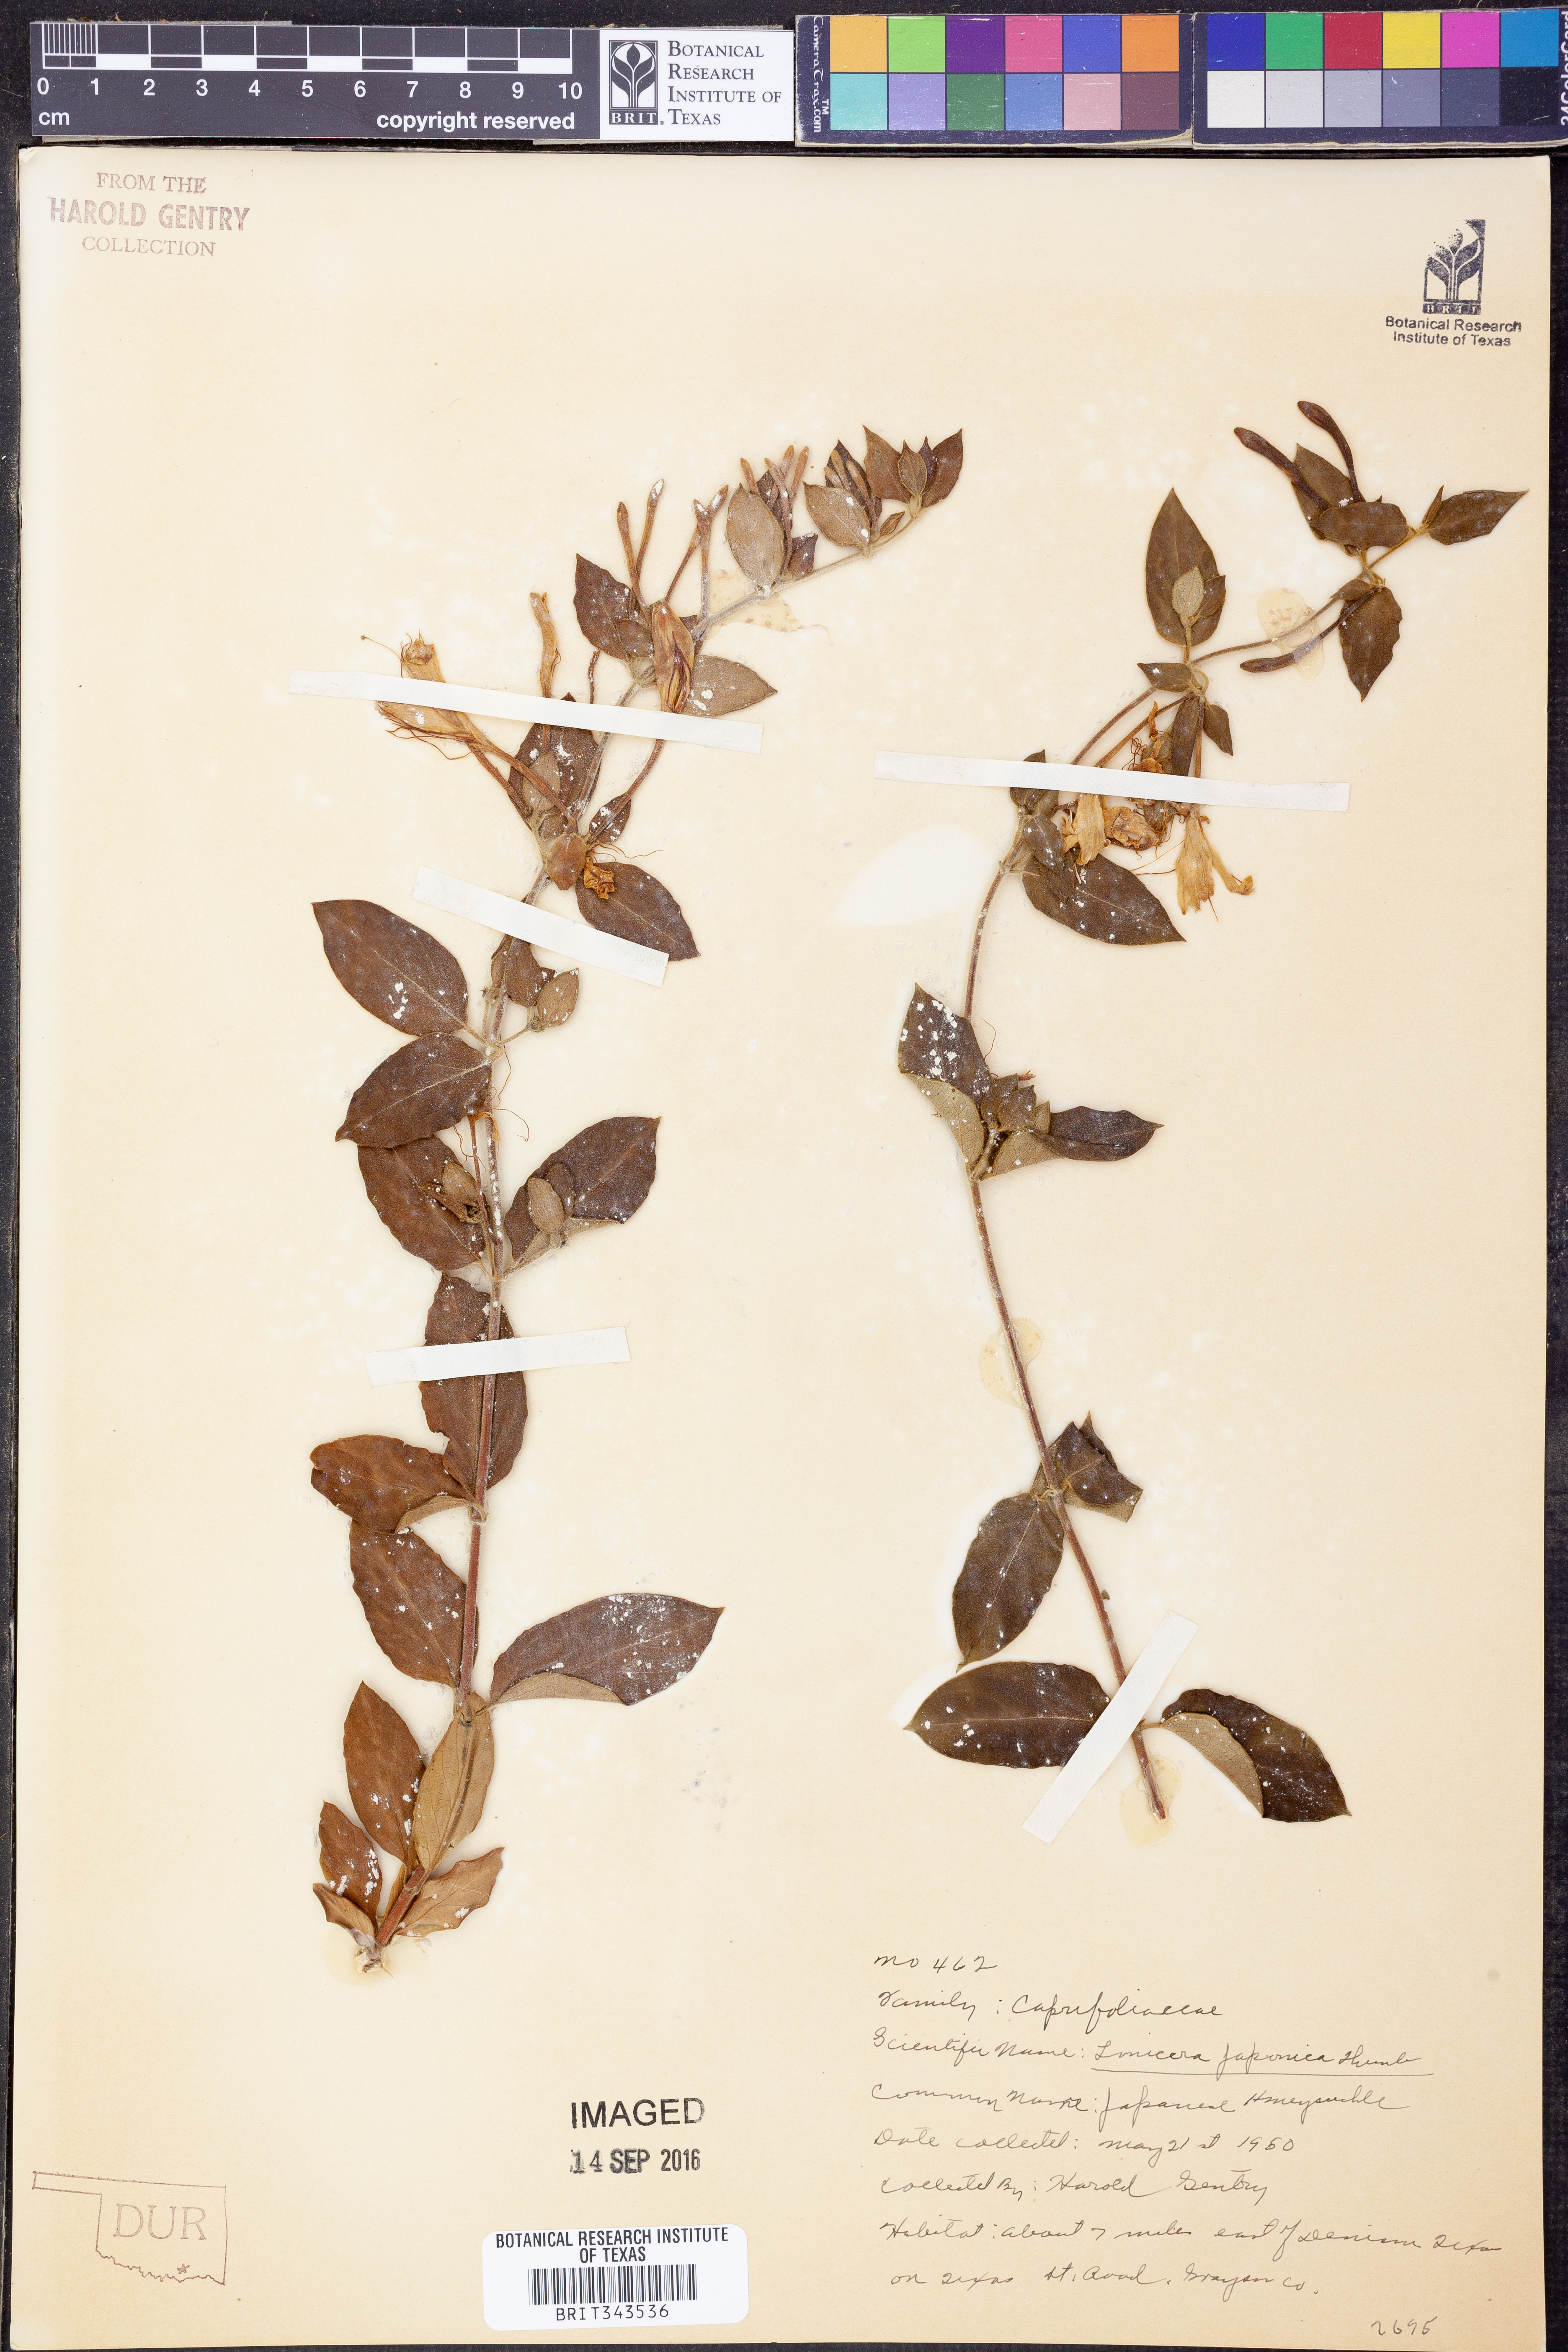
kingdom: Plantae
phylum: Tracheophyta
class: Magnoliopsida
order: Dipsacales
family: Caprifoliaceae
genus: Lonicera
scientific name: Lonicera japonica
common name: Japanese honeysuckle
